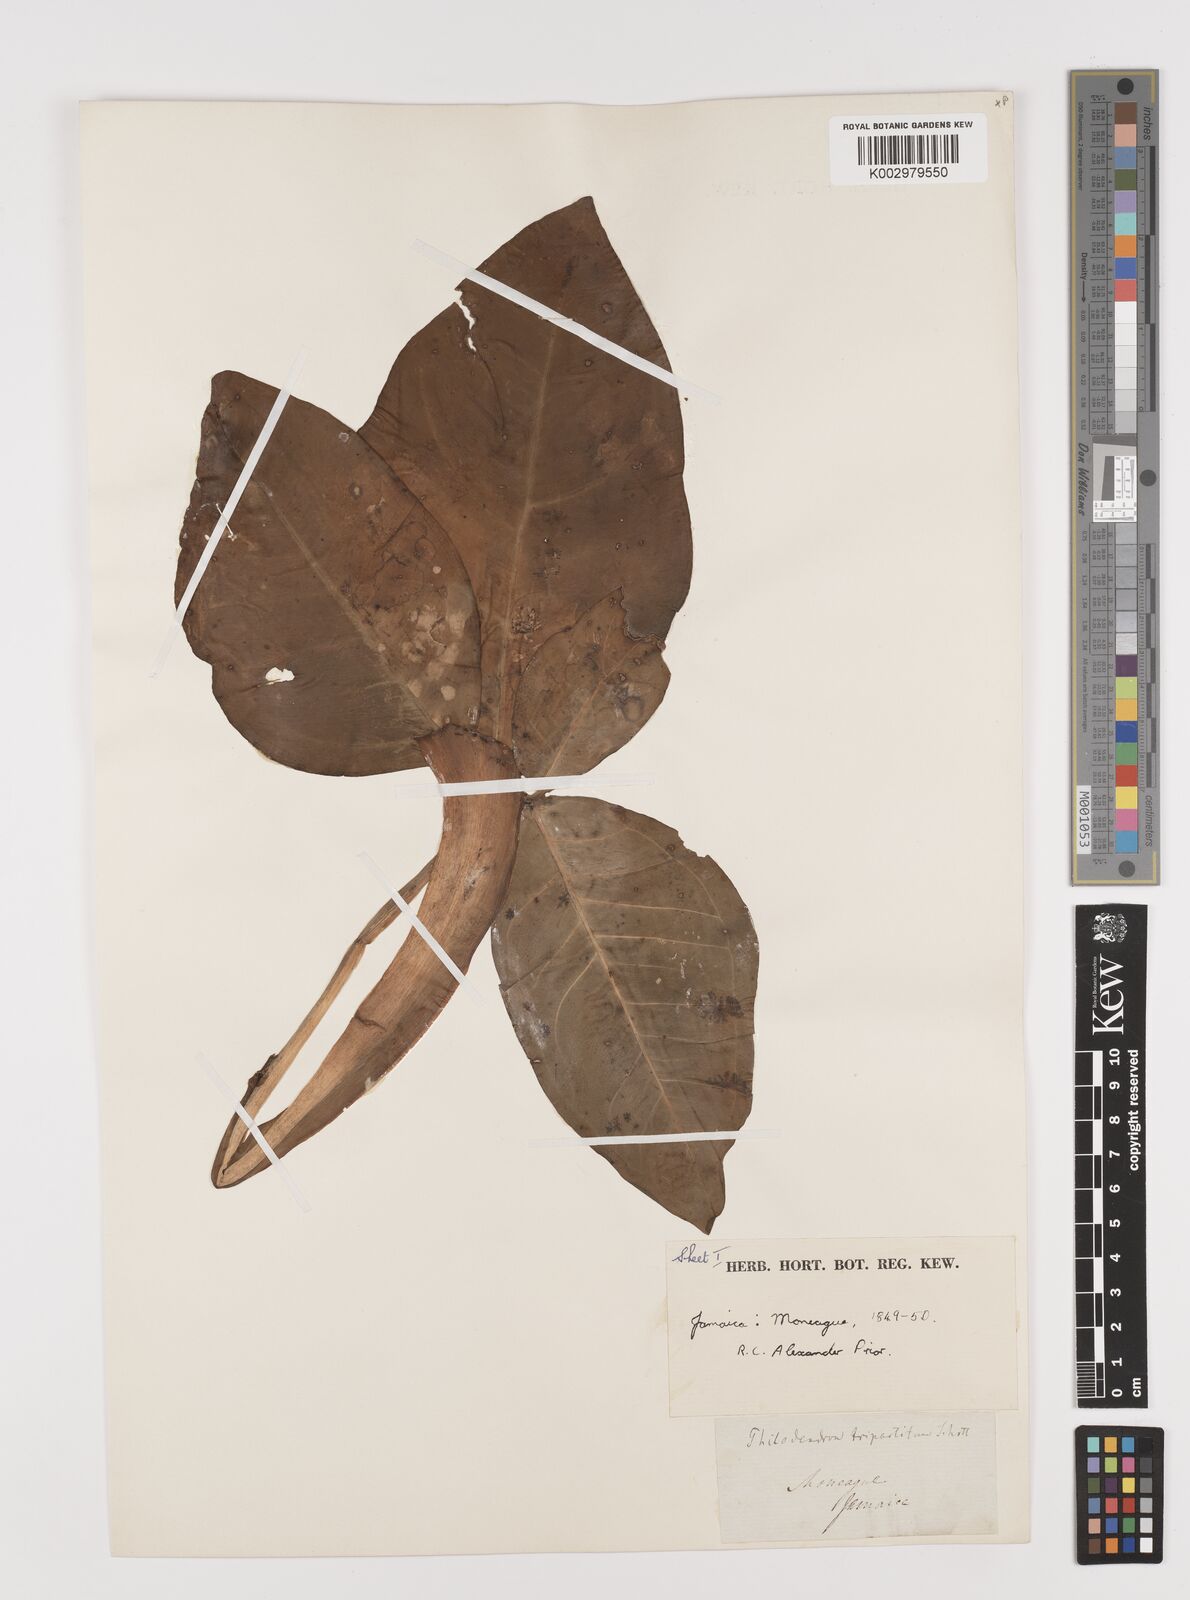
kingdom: Plantae
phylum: Tracheophyta
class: Liliopsida
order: Alismatales
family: Araceae
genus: Syngonium
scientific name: Syngonium auritum
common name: Five-fingers
